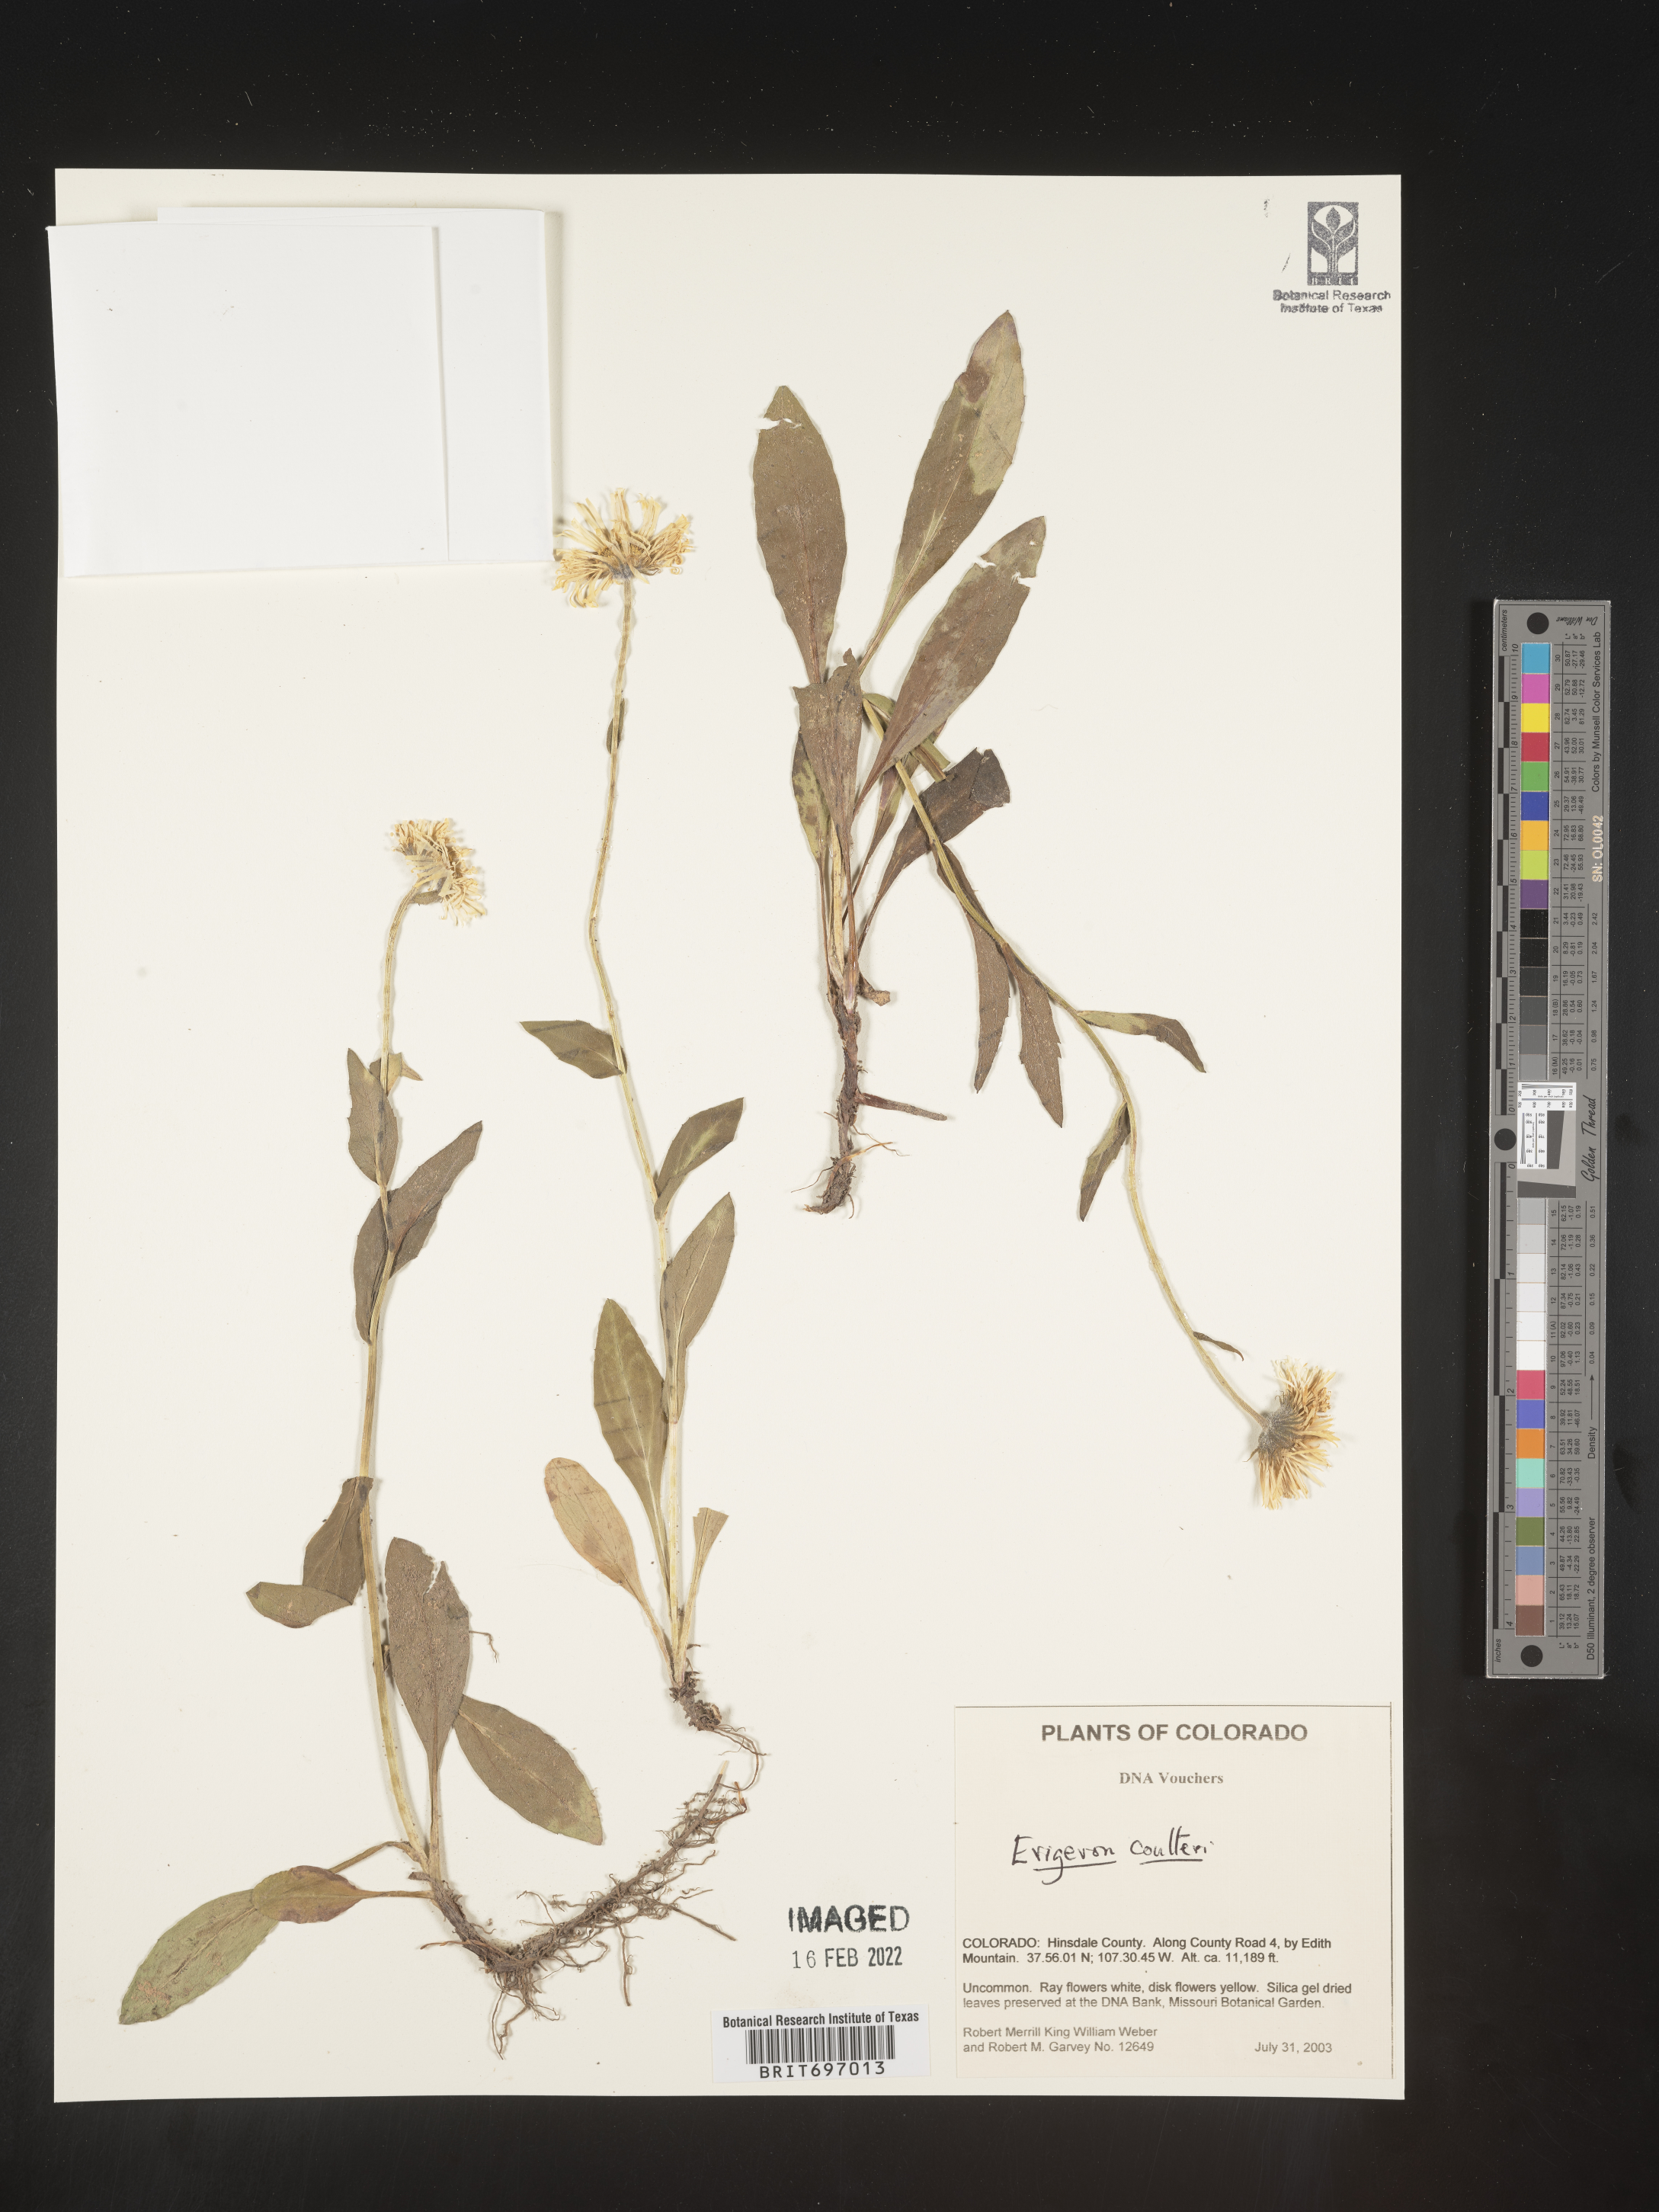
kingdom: Plantae
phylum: Tracheophyta
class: Magnoliopsida
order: Asterales
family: Asteraceae
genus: Erigeron
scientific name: Erigeron coulteri
